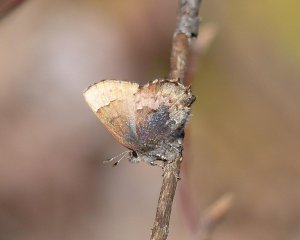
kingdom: Animalia
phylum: Arthropoda
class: Insecta
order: Lepidoptera
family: Lycaenidae
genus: Incisalia
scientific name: Incisalia henrici
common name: Henry's Elfin
